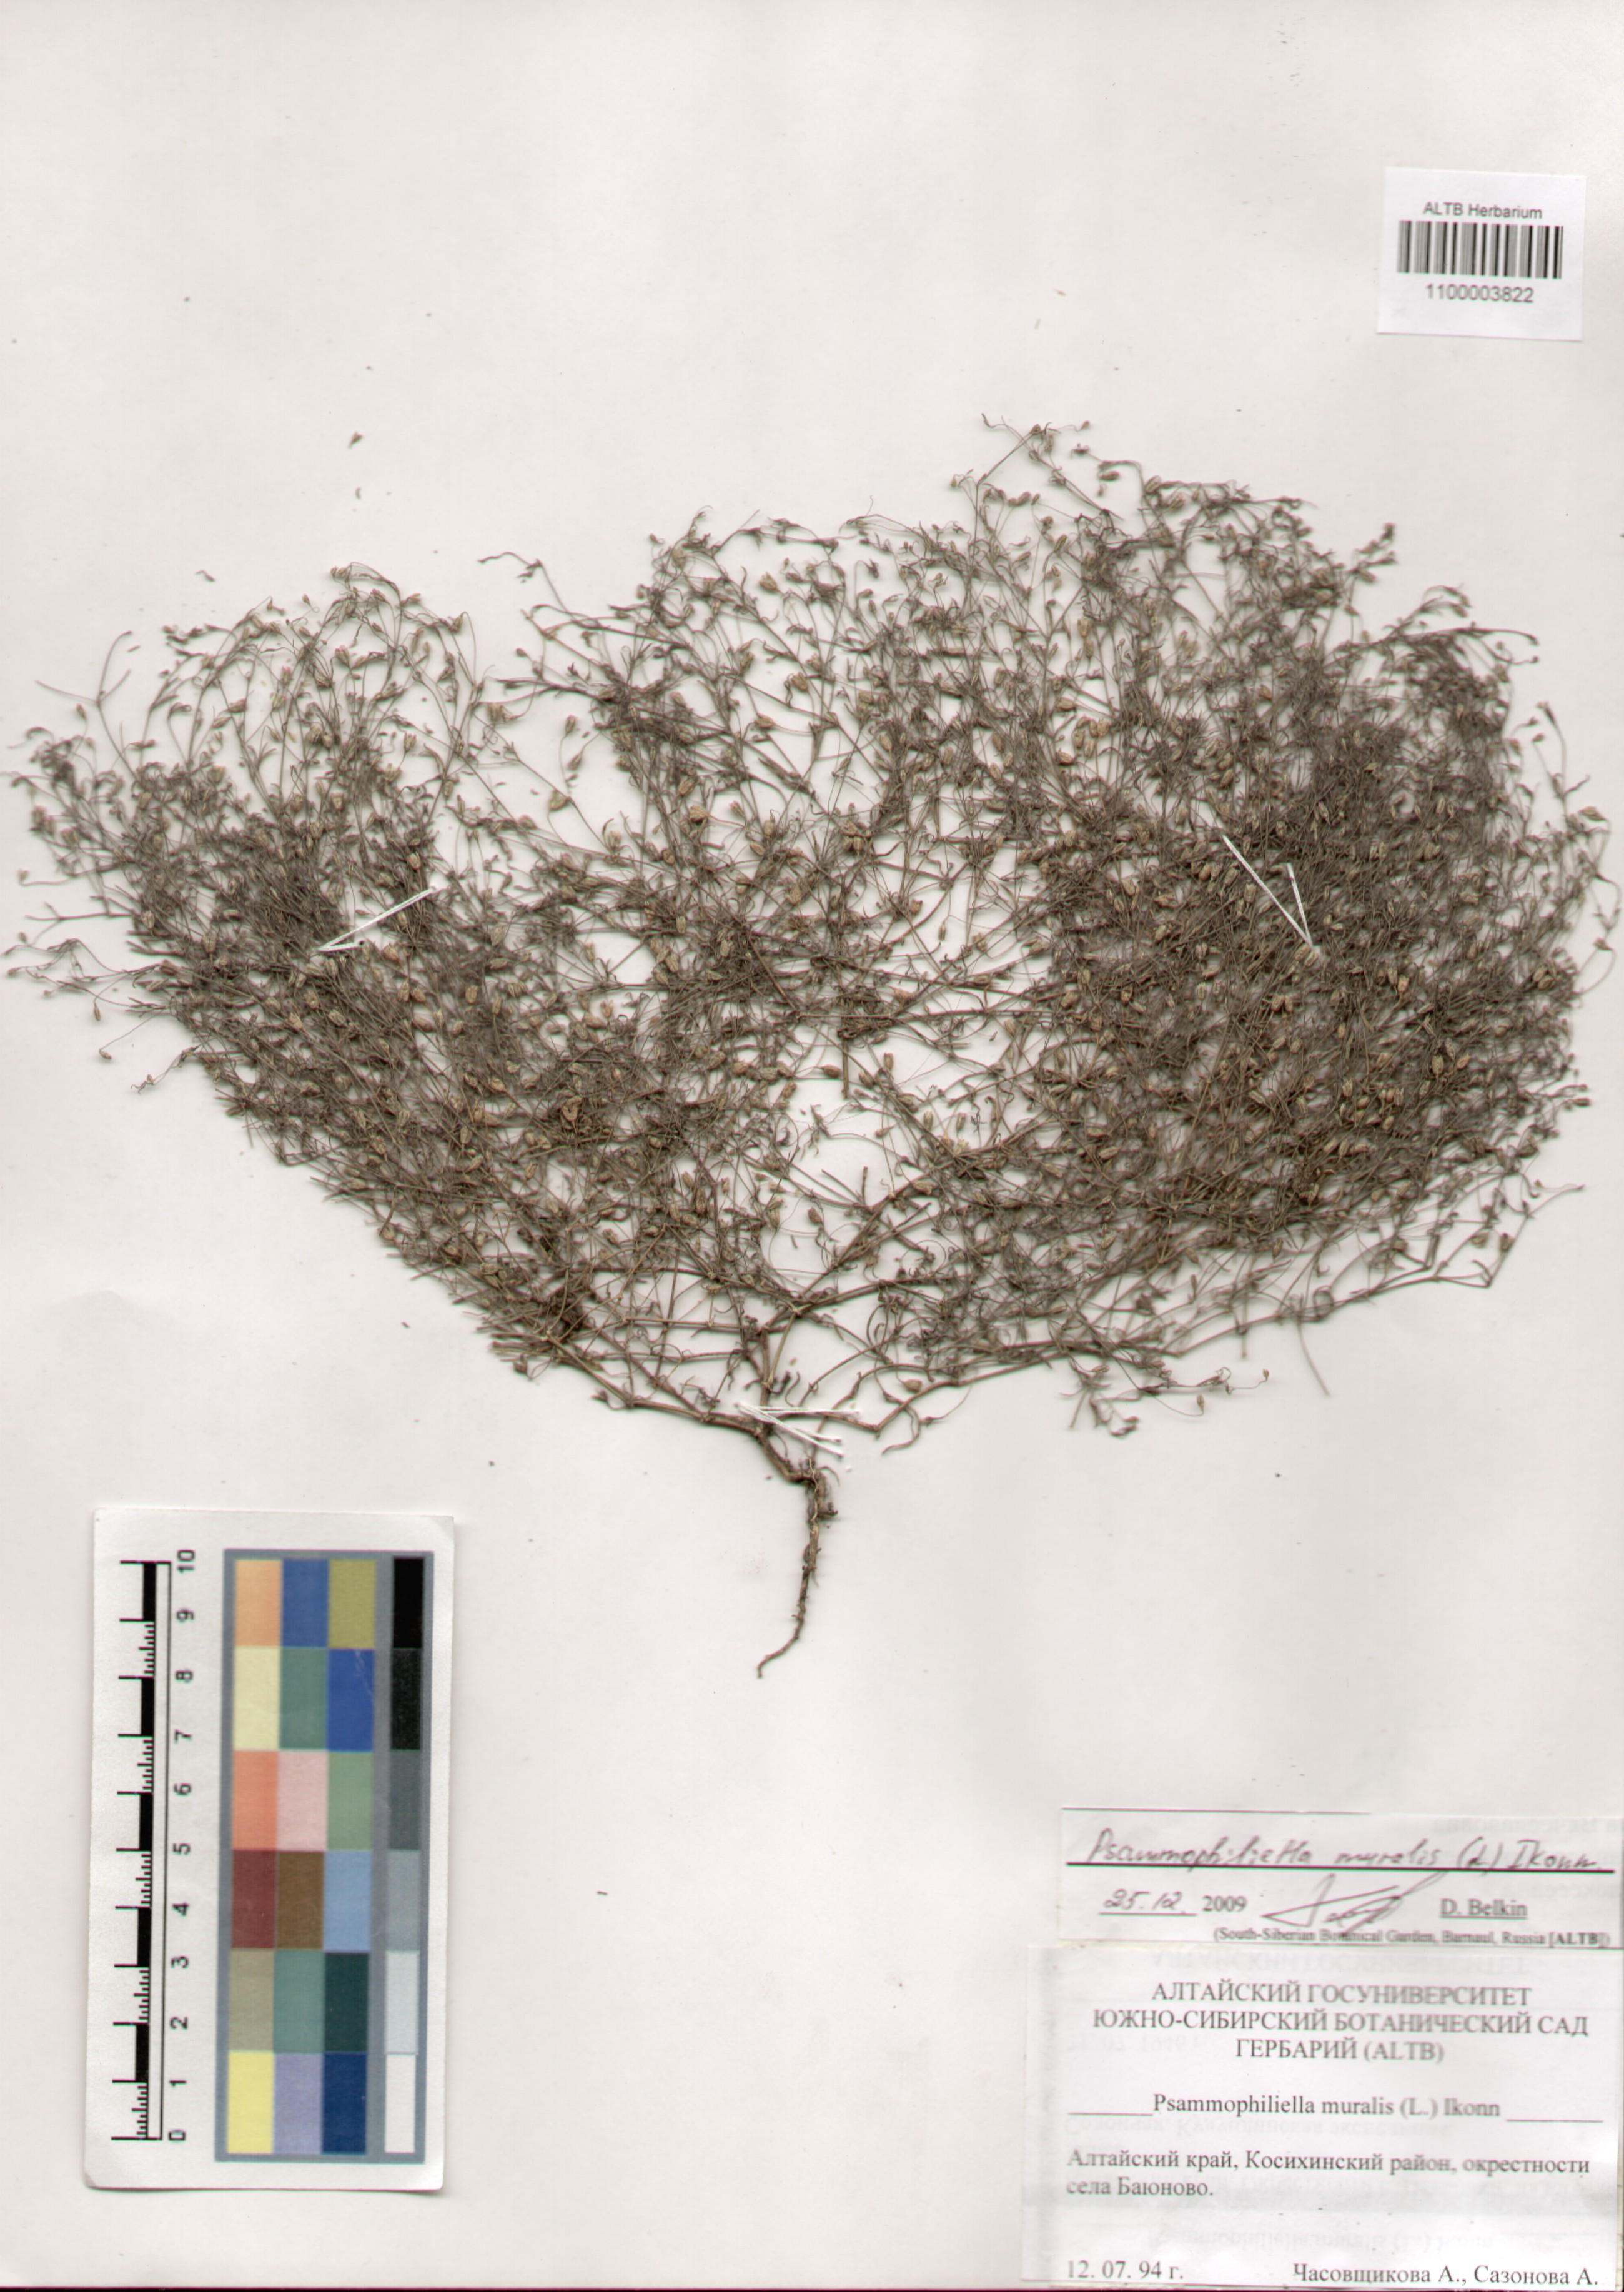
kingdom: Plantae
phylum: Tracheophyta
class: Magnoliopsida
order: Caryophyllales
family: Caryophyllaceae
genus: Psammophiliella
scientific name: Psammophiliella muralis
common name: Cushion baby's-breath
